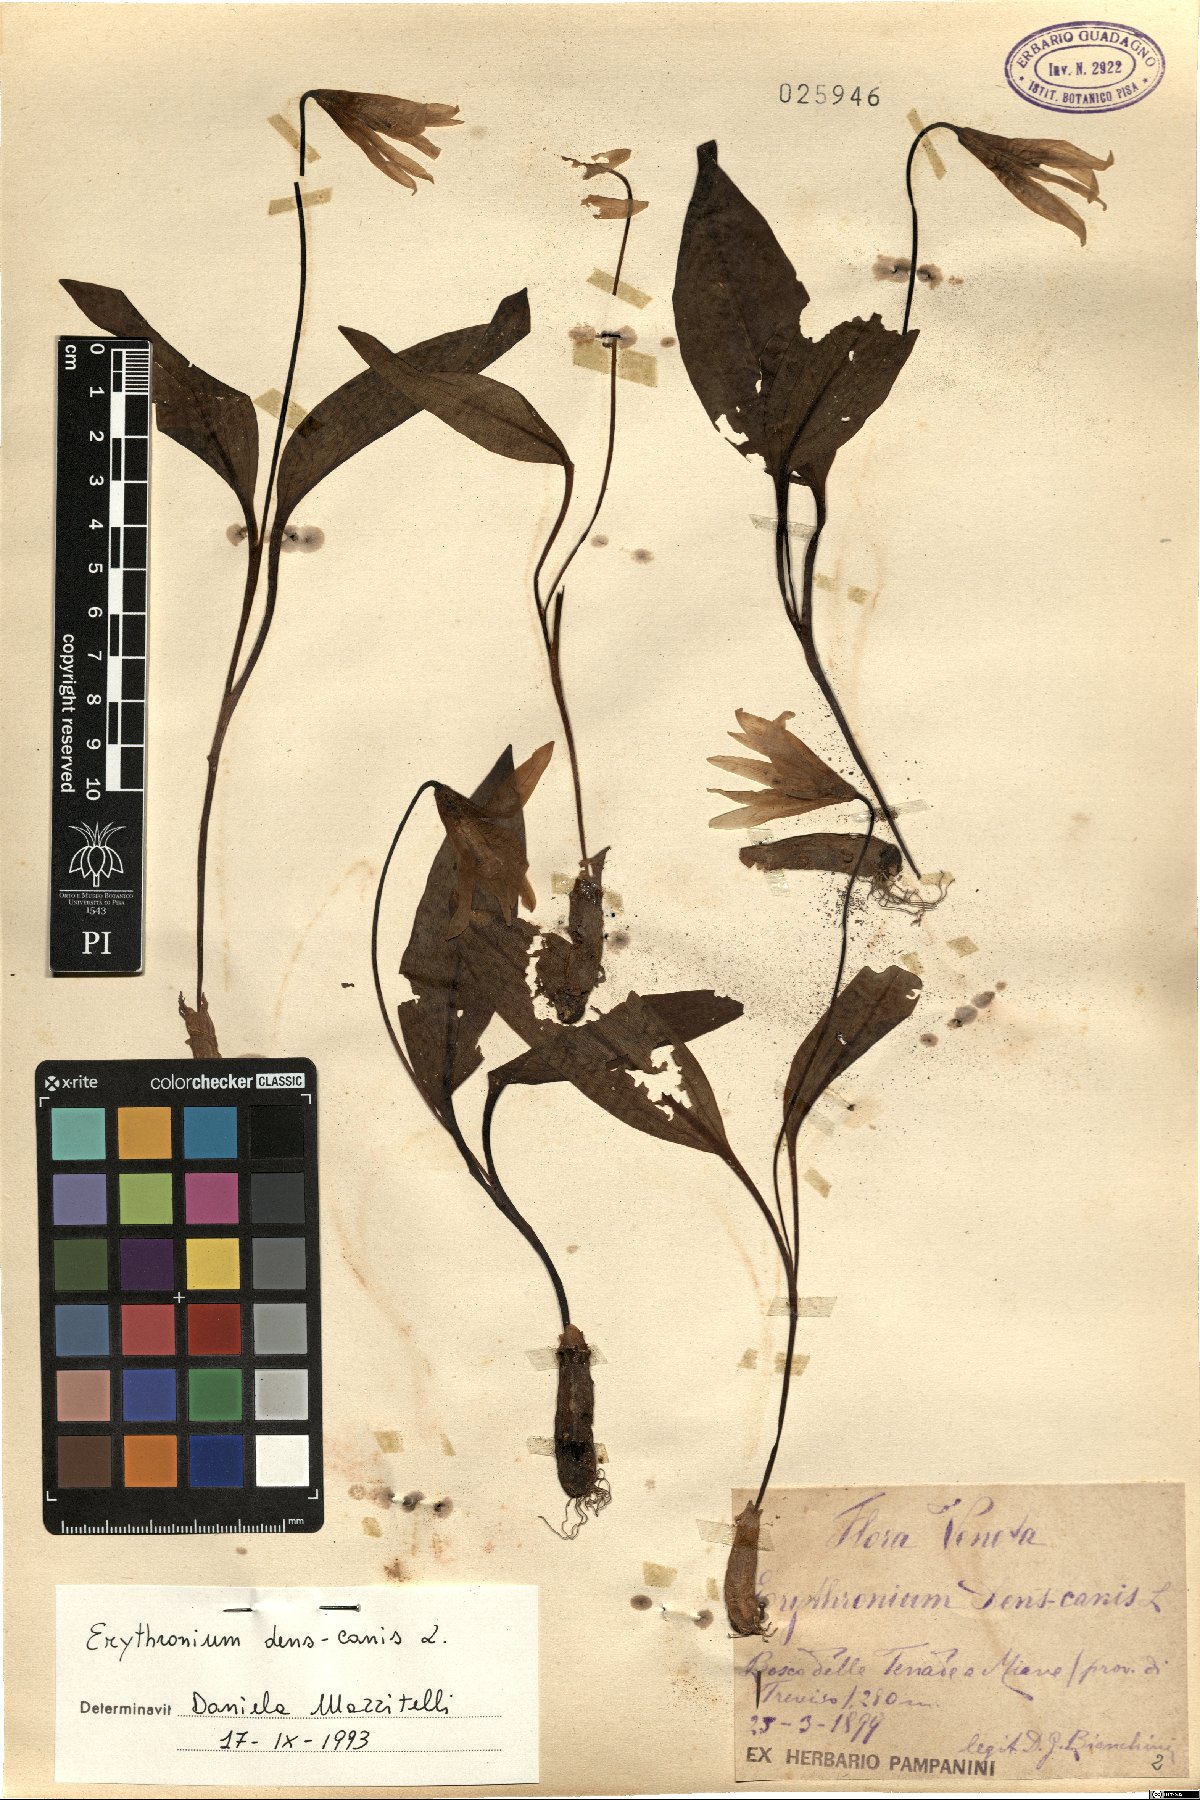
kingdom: Plantae
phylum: Tracheophyta
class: Liliopsida
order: Liliales
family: Liliaceae
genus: Erythronium
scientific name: Erythronium dens-canis
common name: Dog's-tooth-violet
